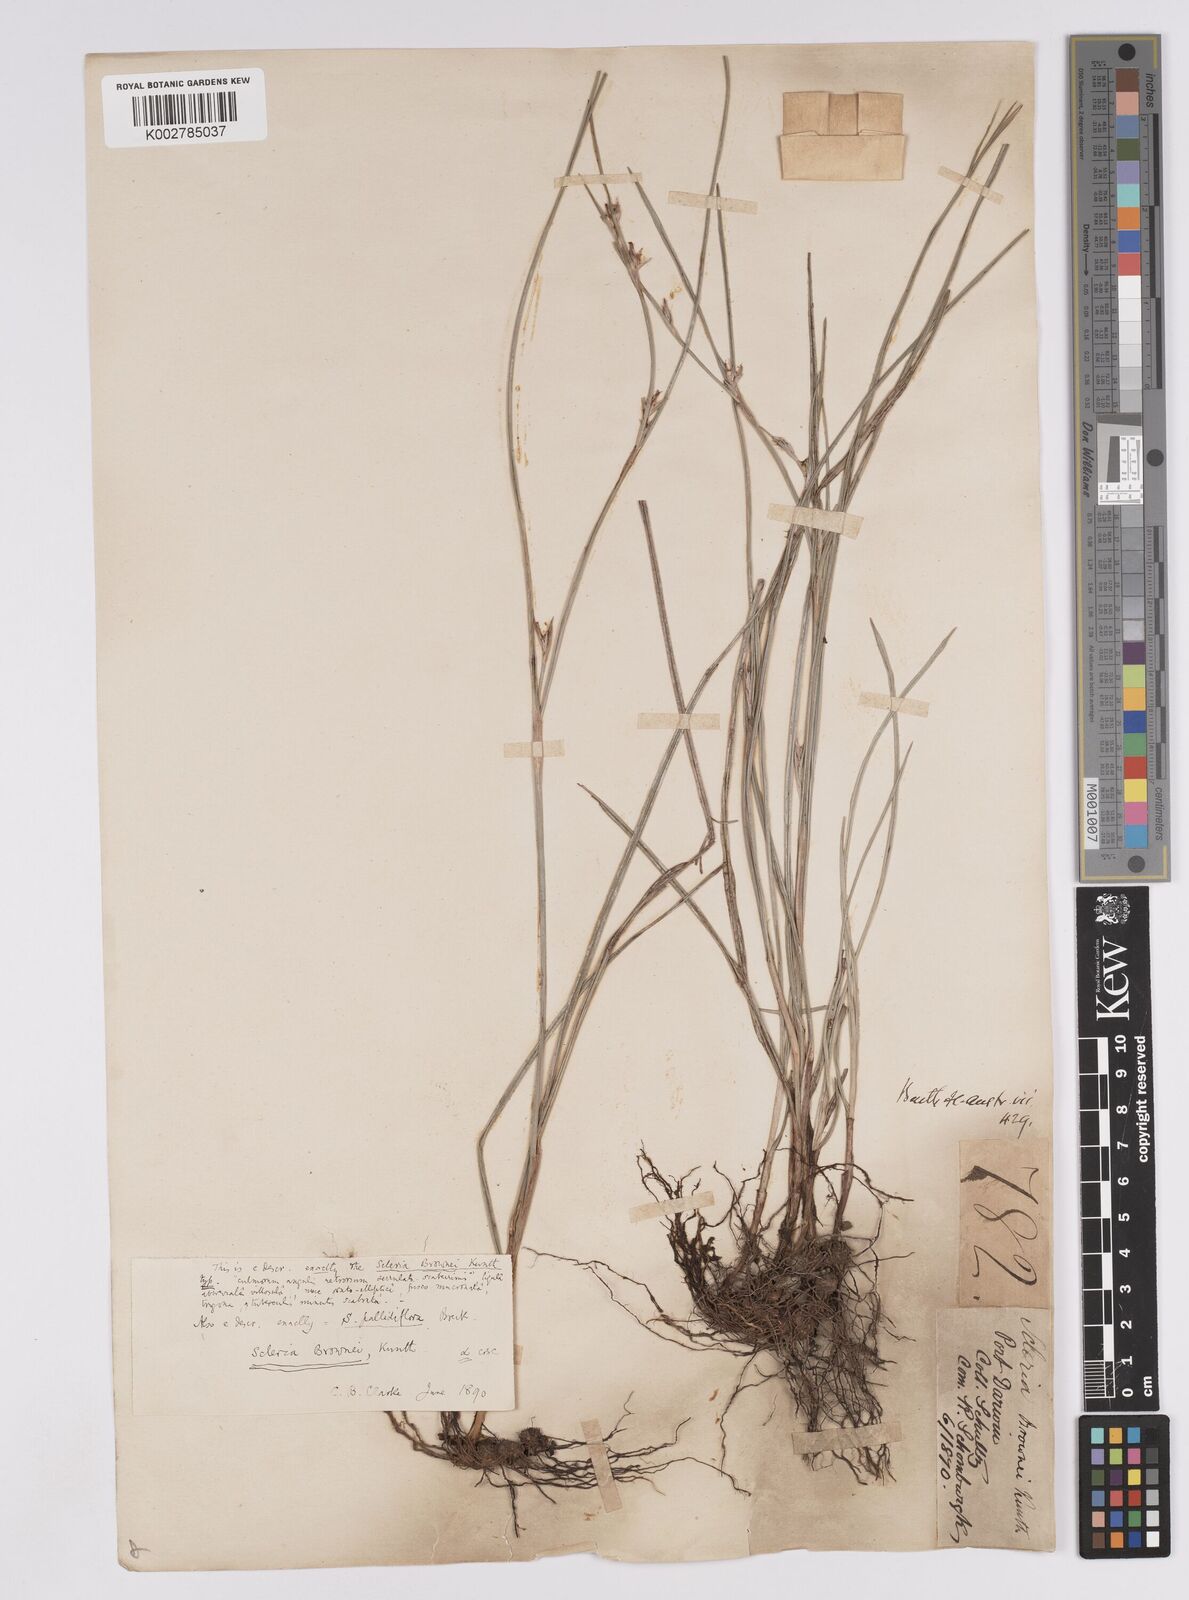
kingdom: Plantae
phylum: Tracheophyta
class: Liliopsida
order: Poales
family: Cyperaceae
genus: Scleria
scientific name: Scleria brownii
